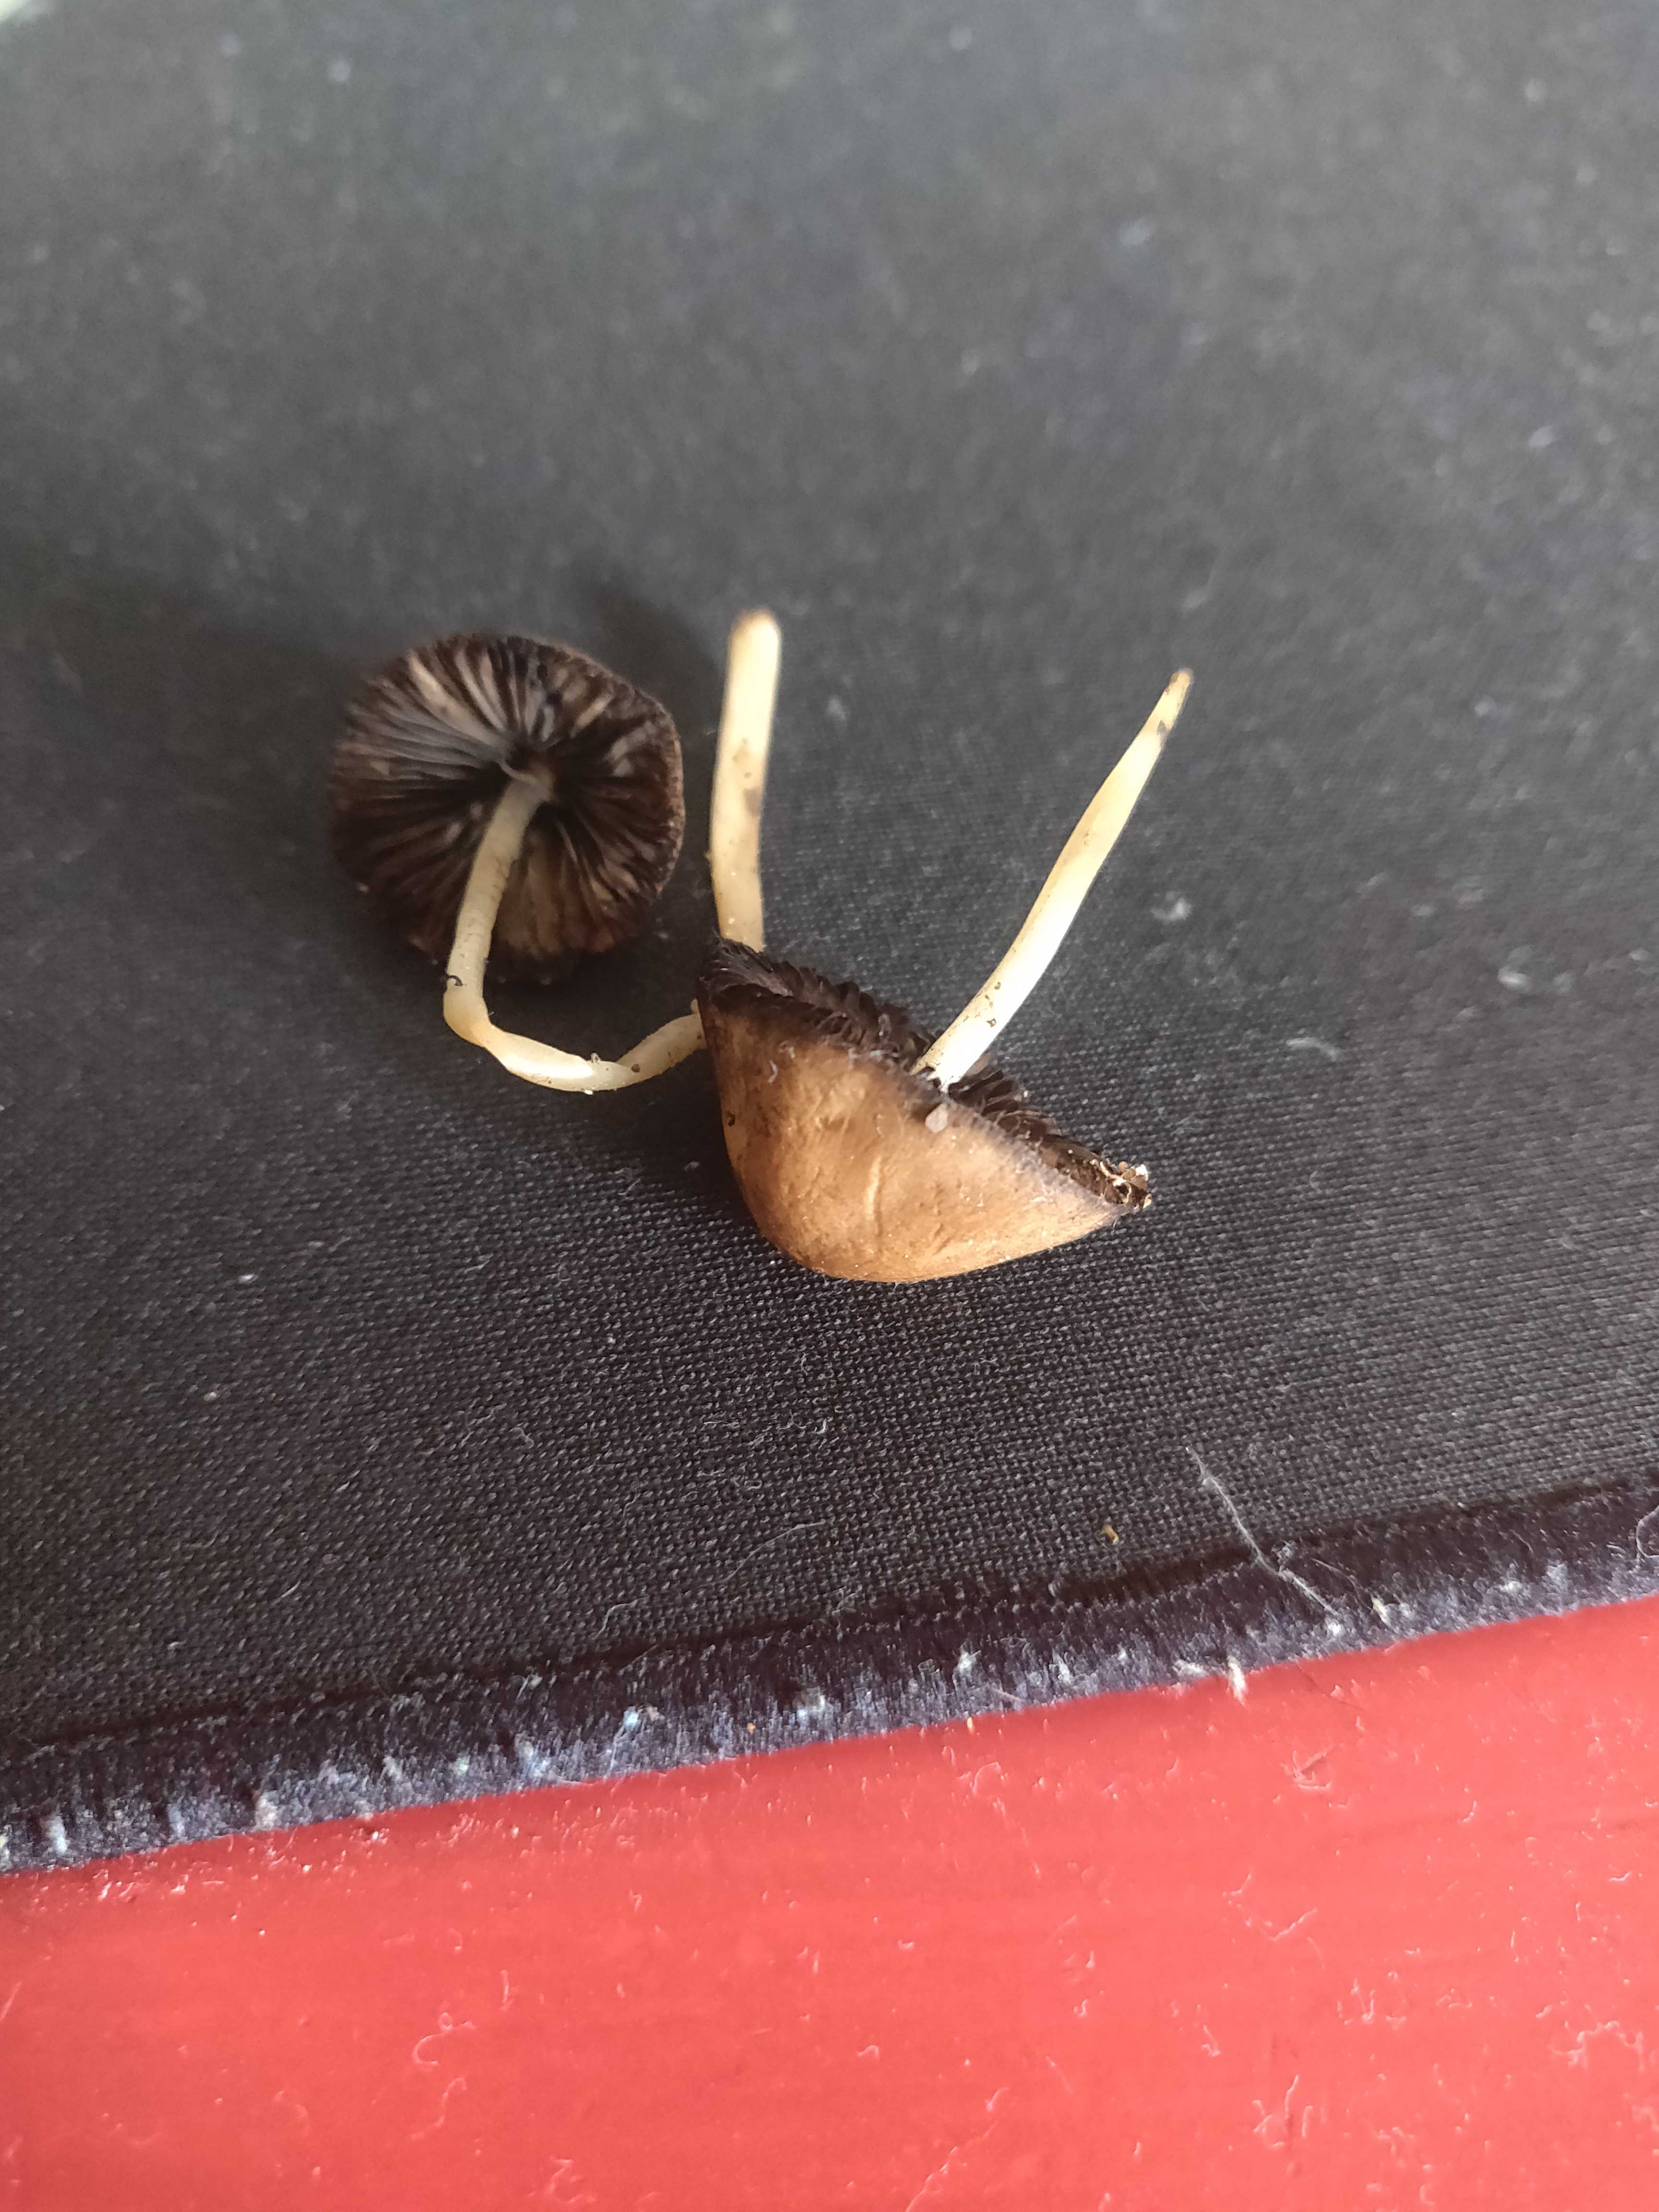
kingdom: Fungi
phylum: Basidiomycota
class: Agaricomycetes
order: Agaricales
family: Strophariaceae
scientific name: Strophariaceae
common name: bredbladfamilien
